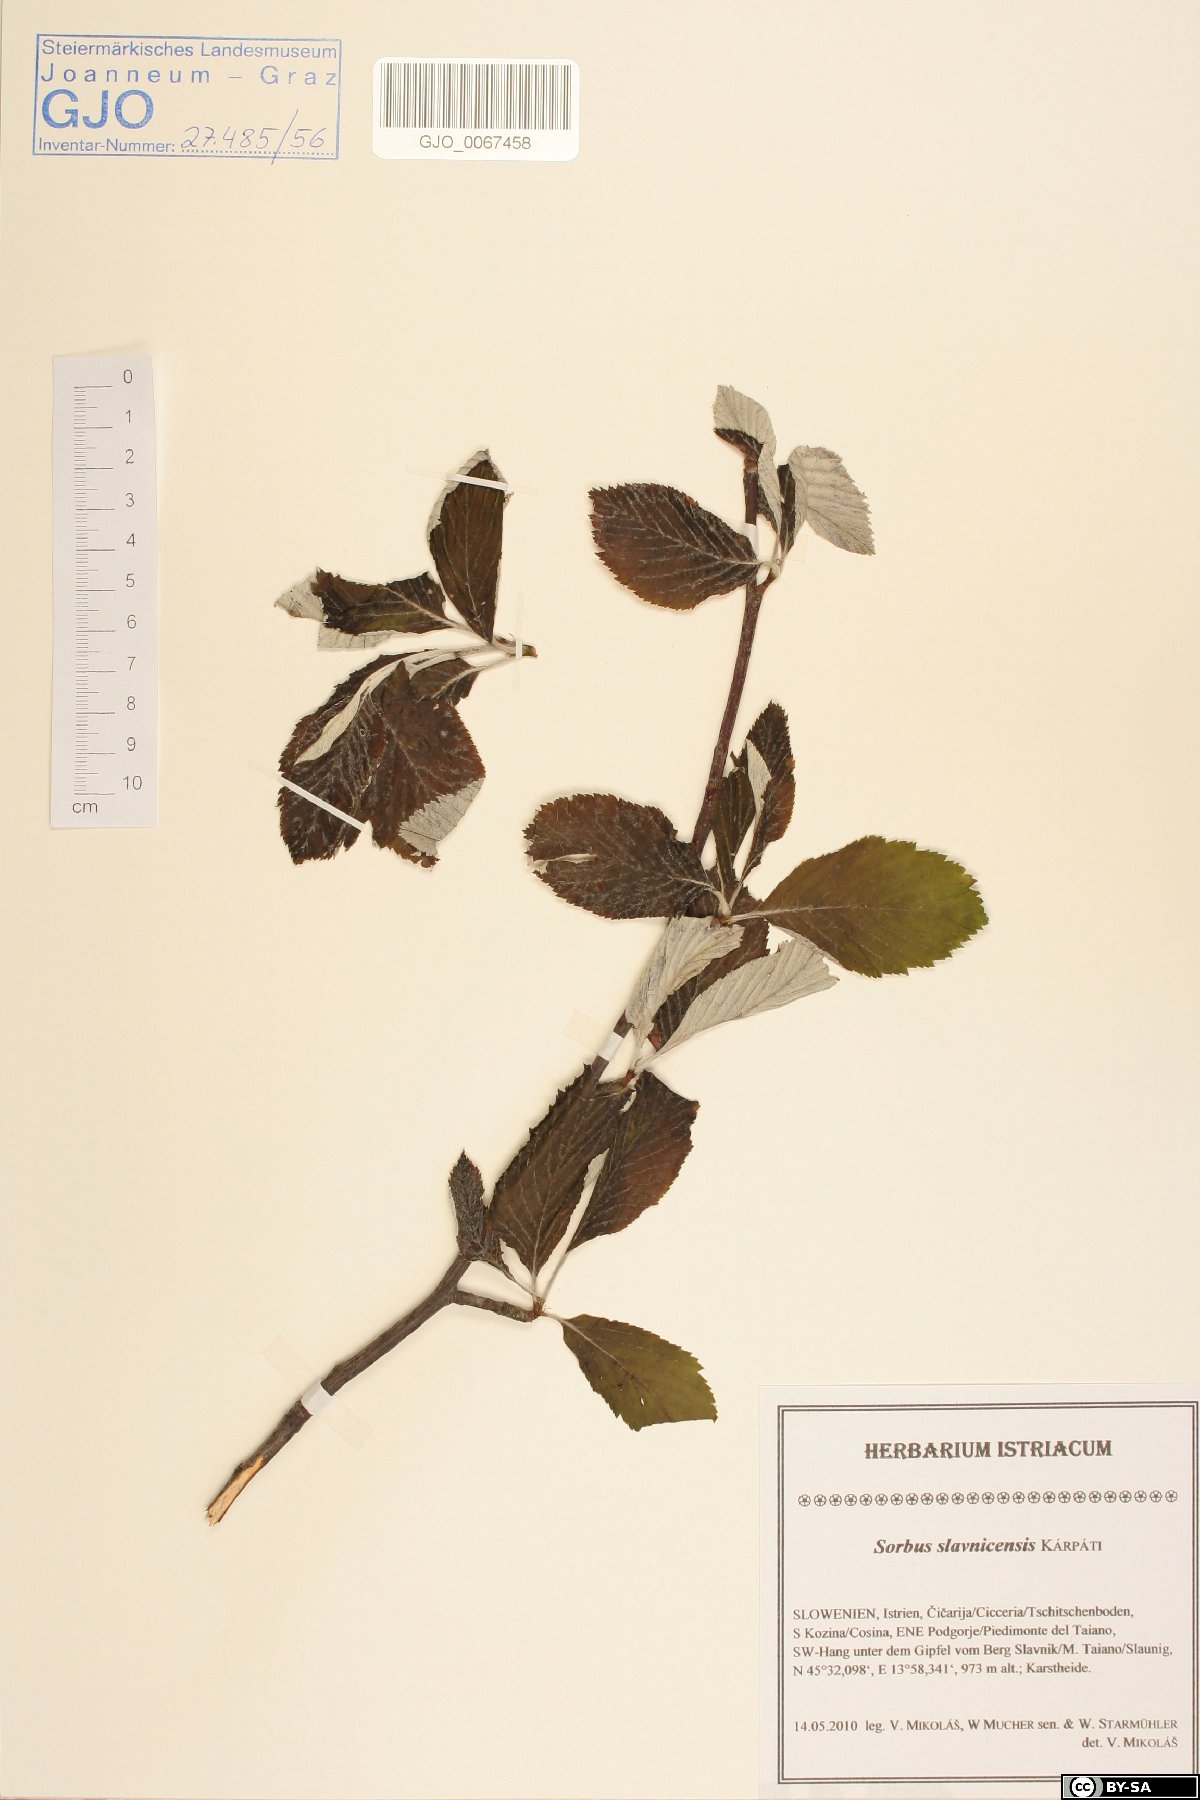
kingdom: Plantae
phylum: Tracheophyta
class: Magnoliopsida
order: Rosales
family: Rosaceae
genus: Karpatiosorbus
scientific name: Karpatiosorbus slavnicensis
